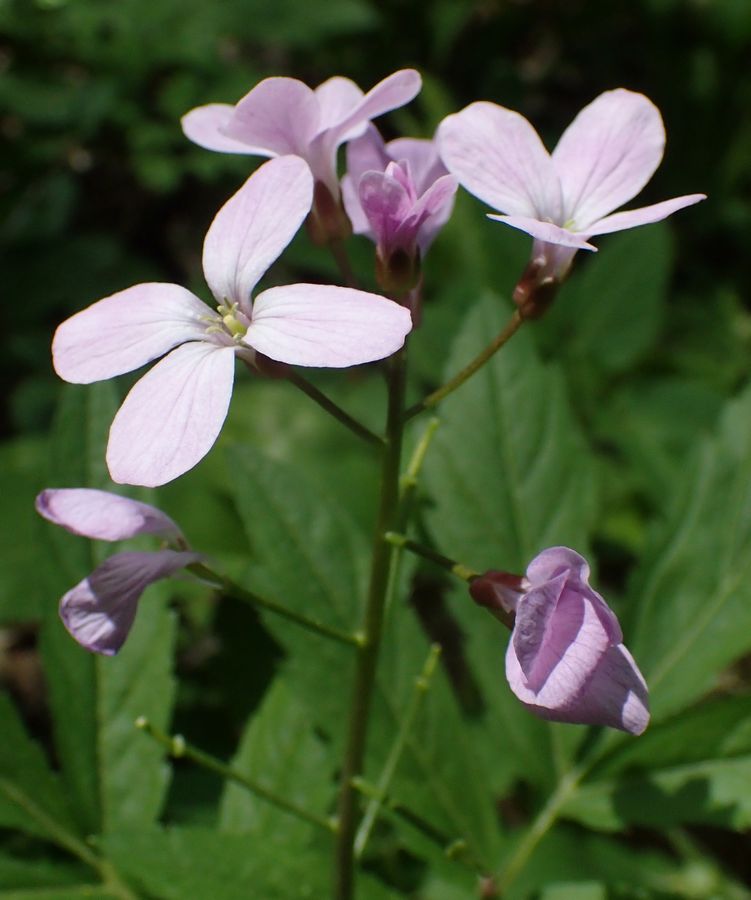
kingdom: Plantae
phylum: Tracheophyta
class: Magnoliopsida
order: Brassicales
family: Brassicaceae
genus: Cardamine
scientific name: Cardamine quinquefolia
